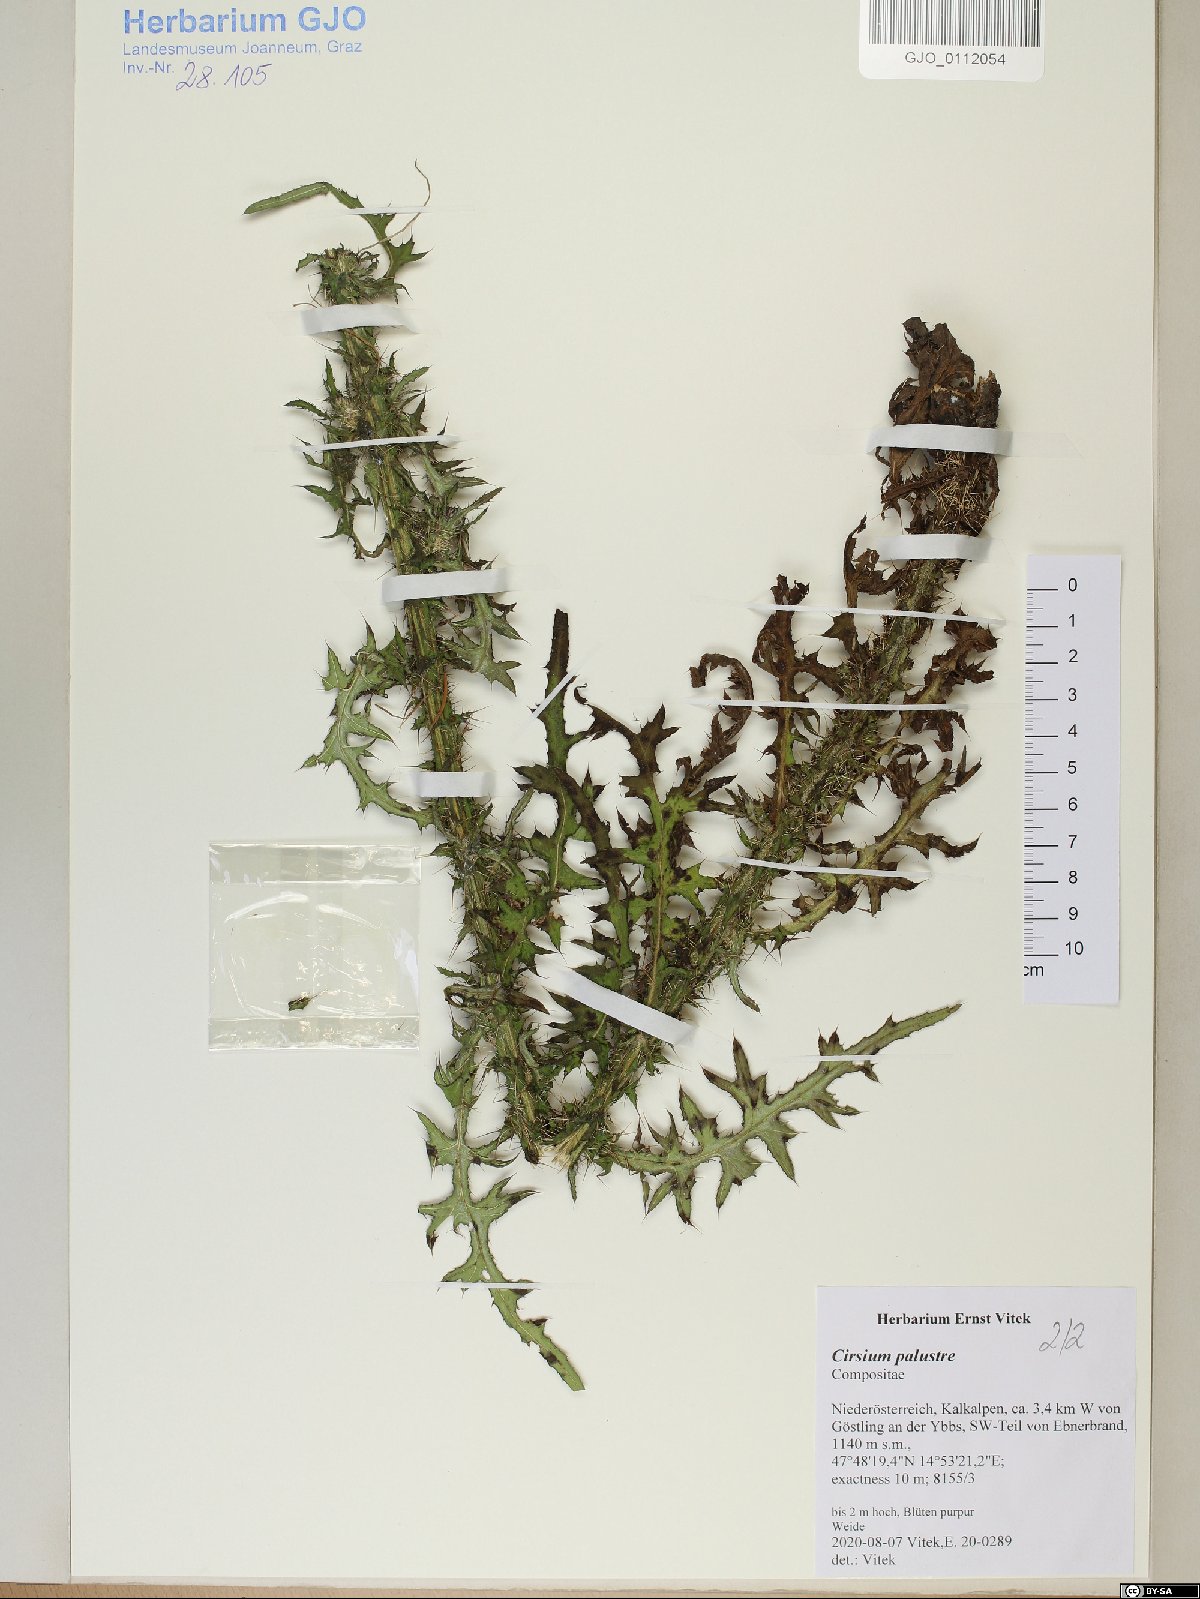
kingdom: Plantae
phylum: Tracheophyta
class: Magnoliopsida
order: Asterales
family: Asteraceae
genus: Cirsium
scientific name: Cirsium palustre
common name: Marsh thistle
